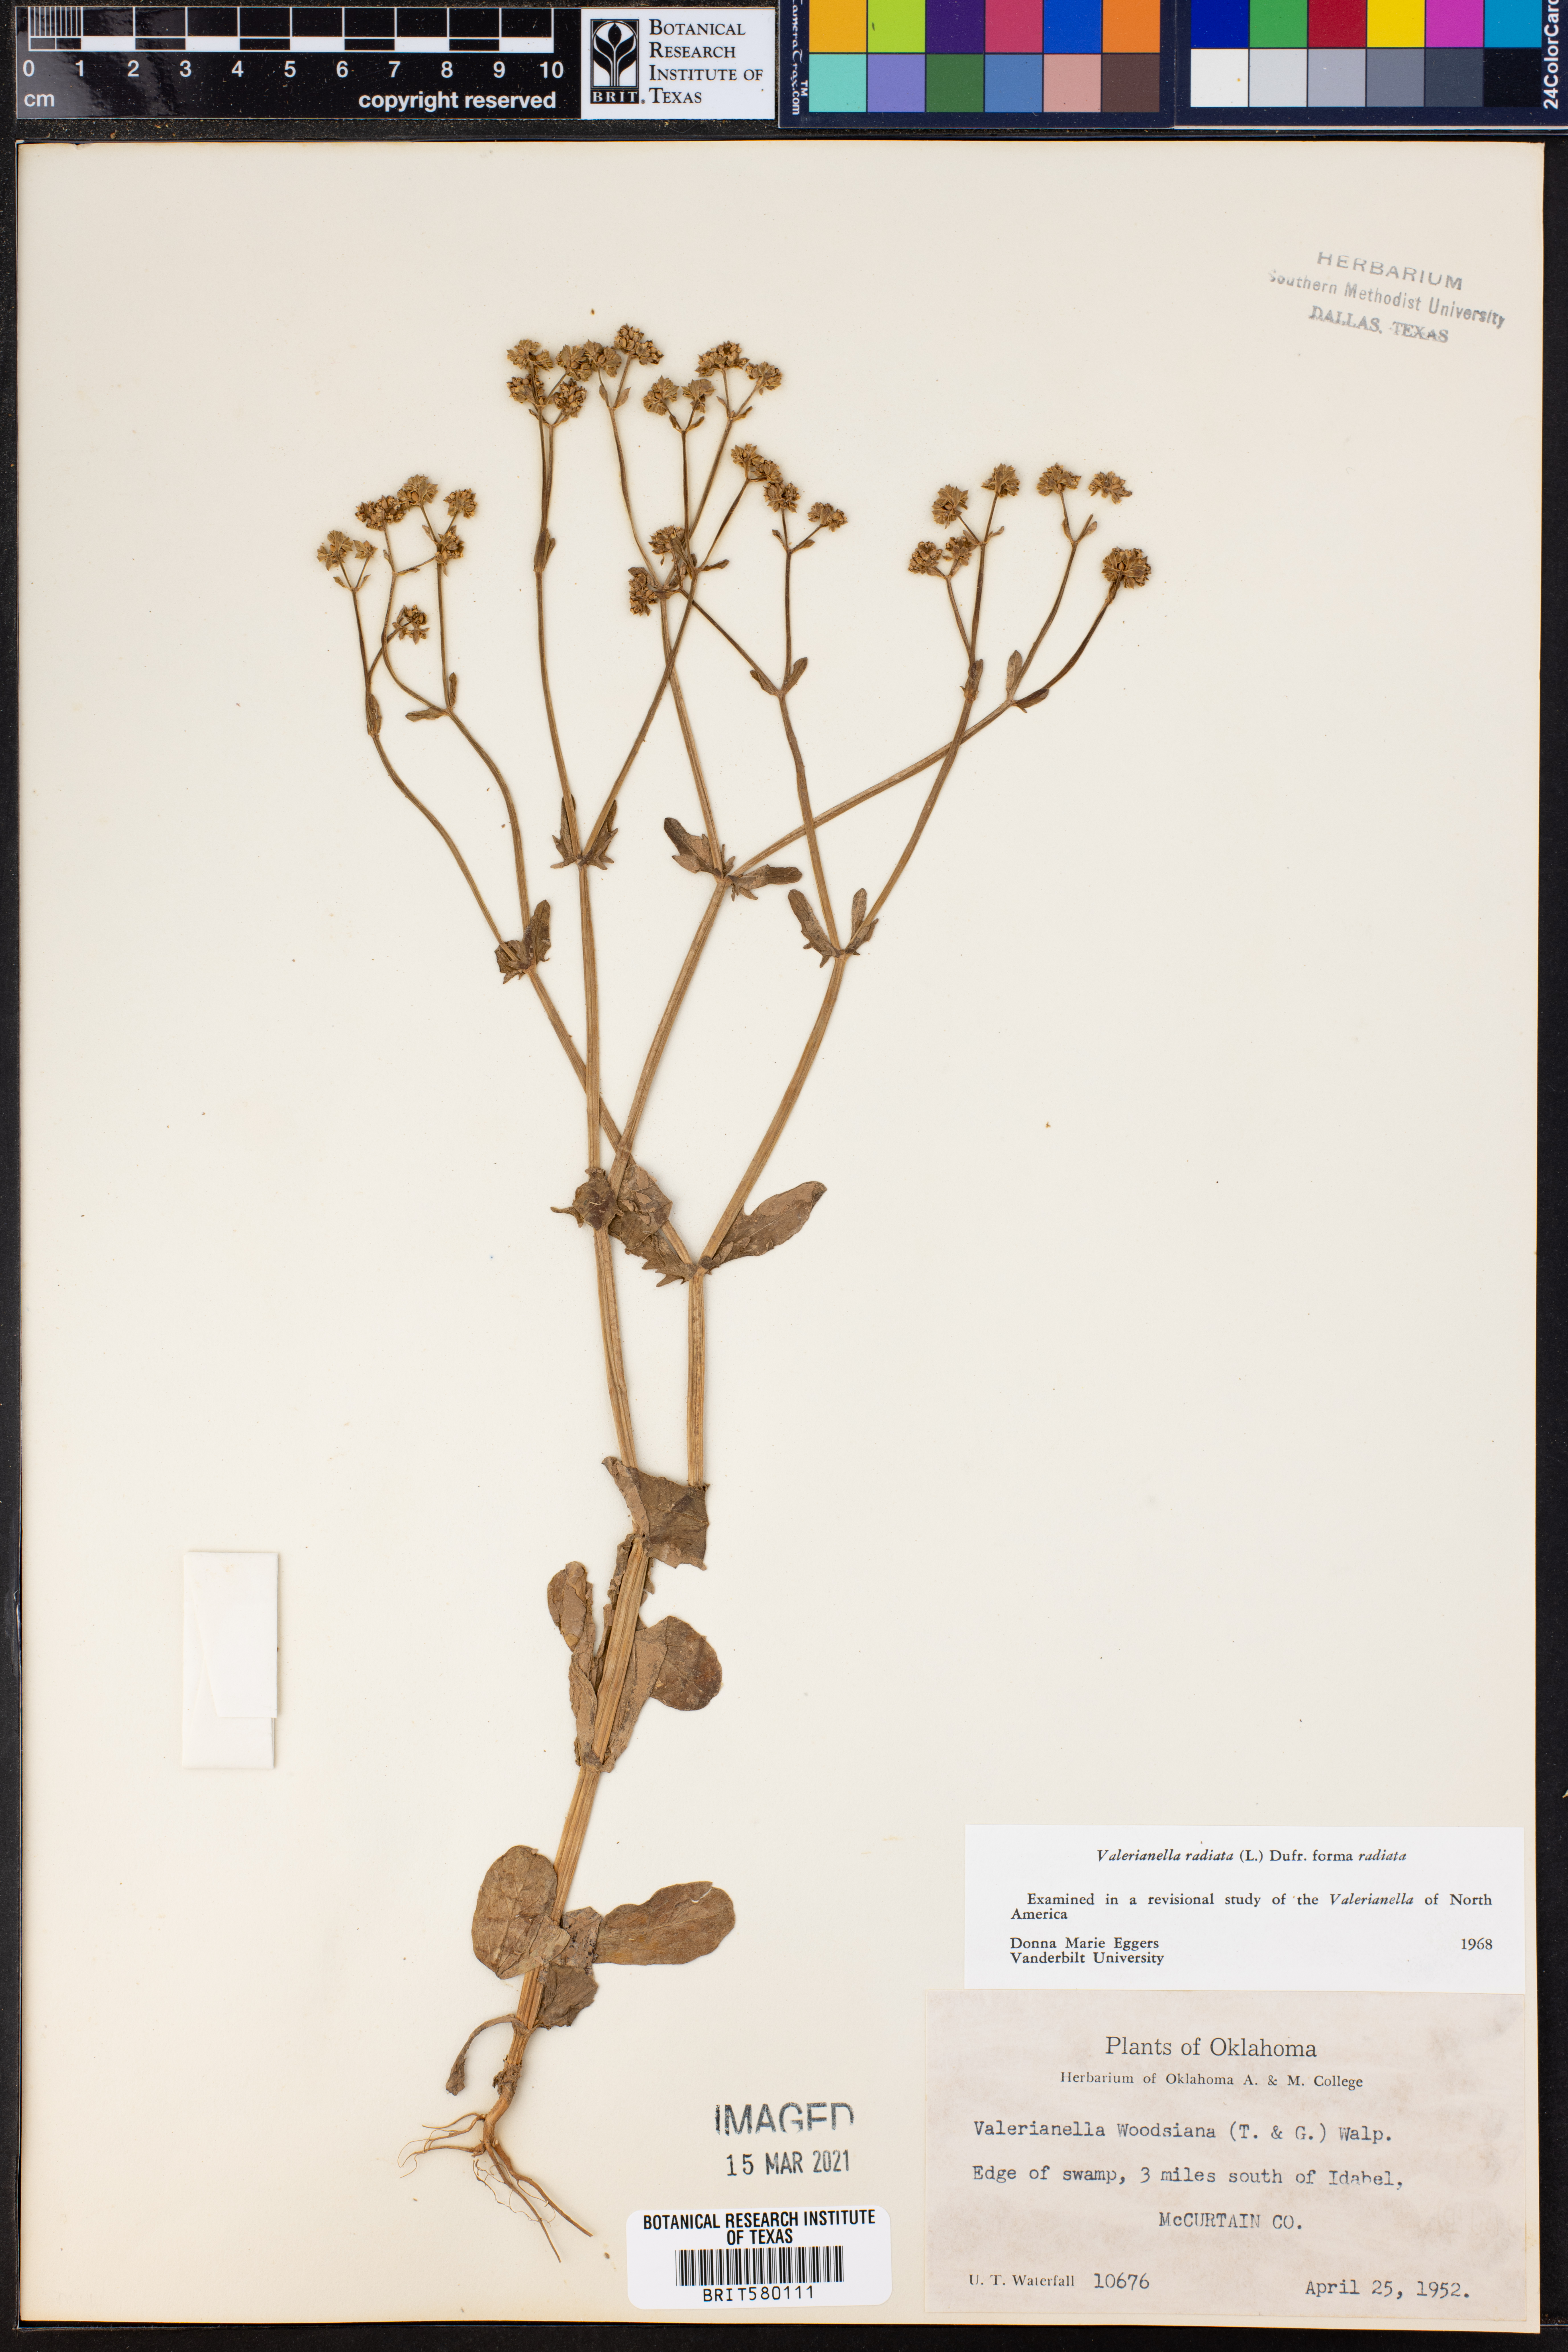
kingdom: Plantae
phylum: Tracheophyta
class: Magnoliopsida
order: Dipsacales
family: Caprifoliaceae
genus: Valerianella
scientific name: Valerianella radiata
